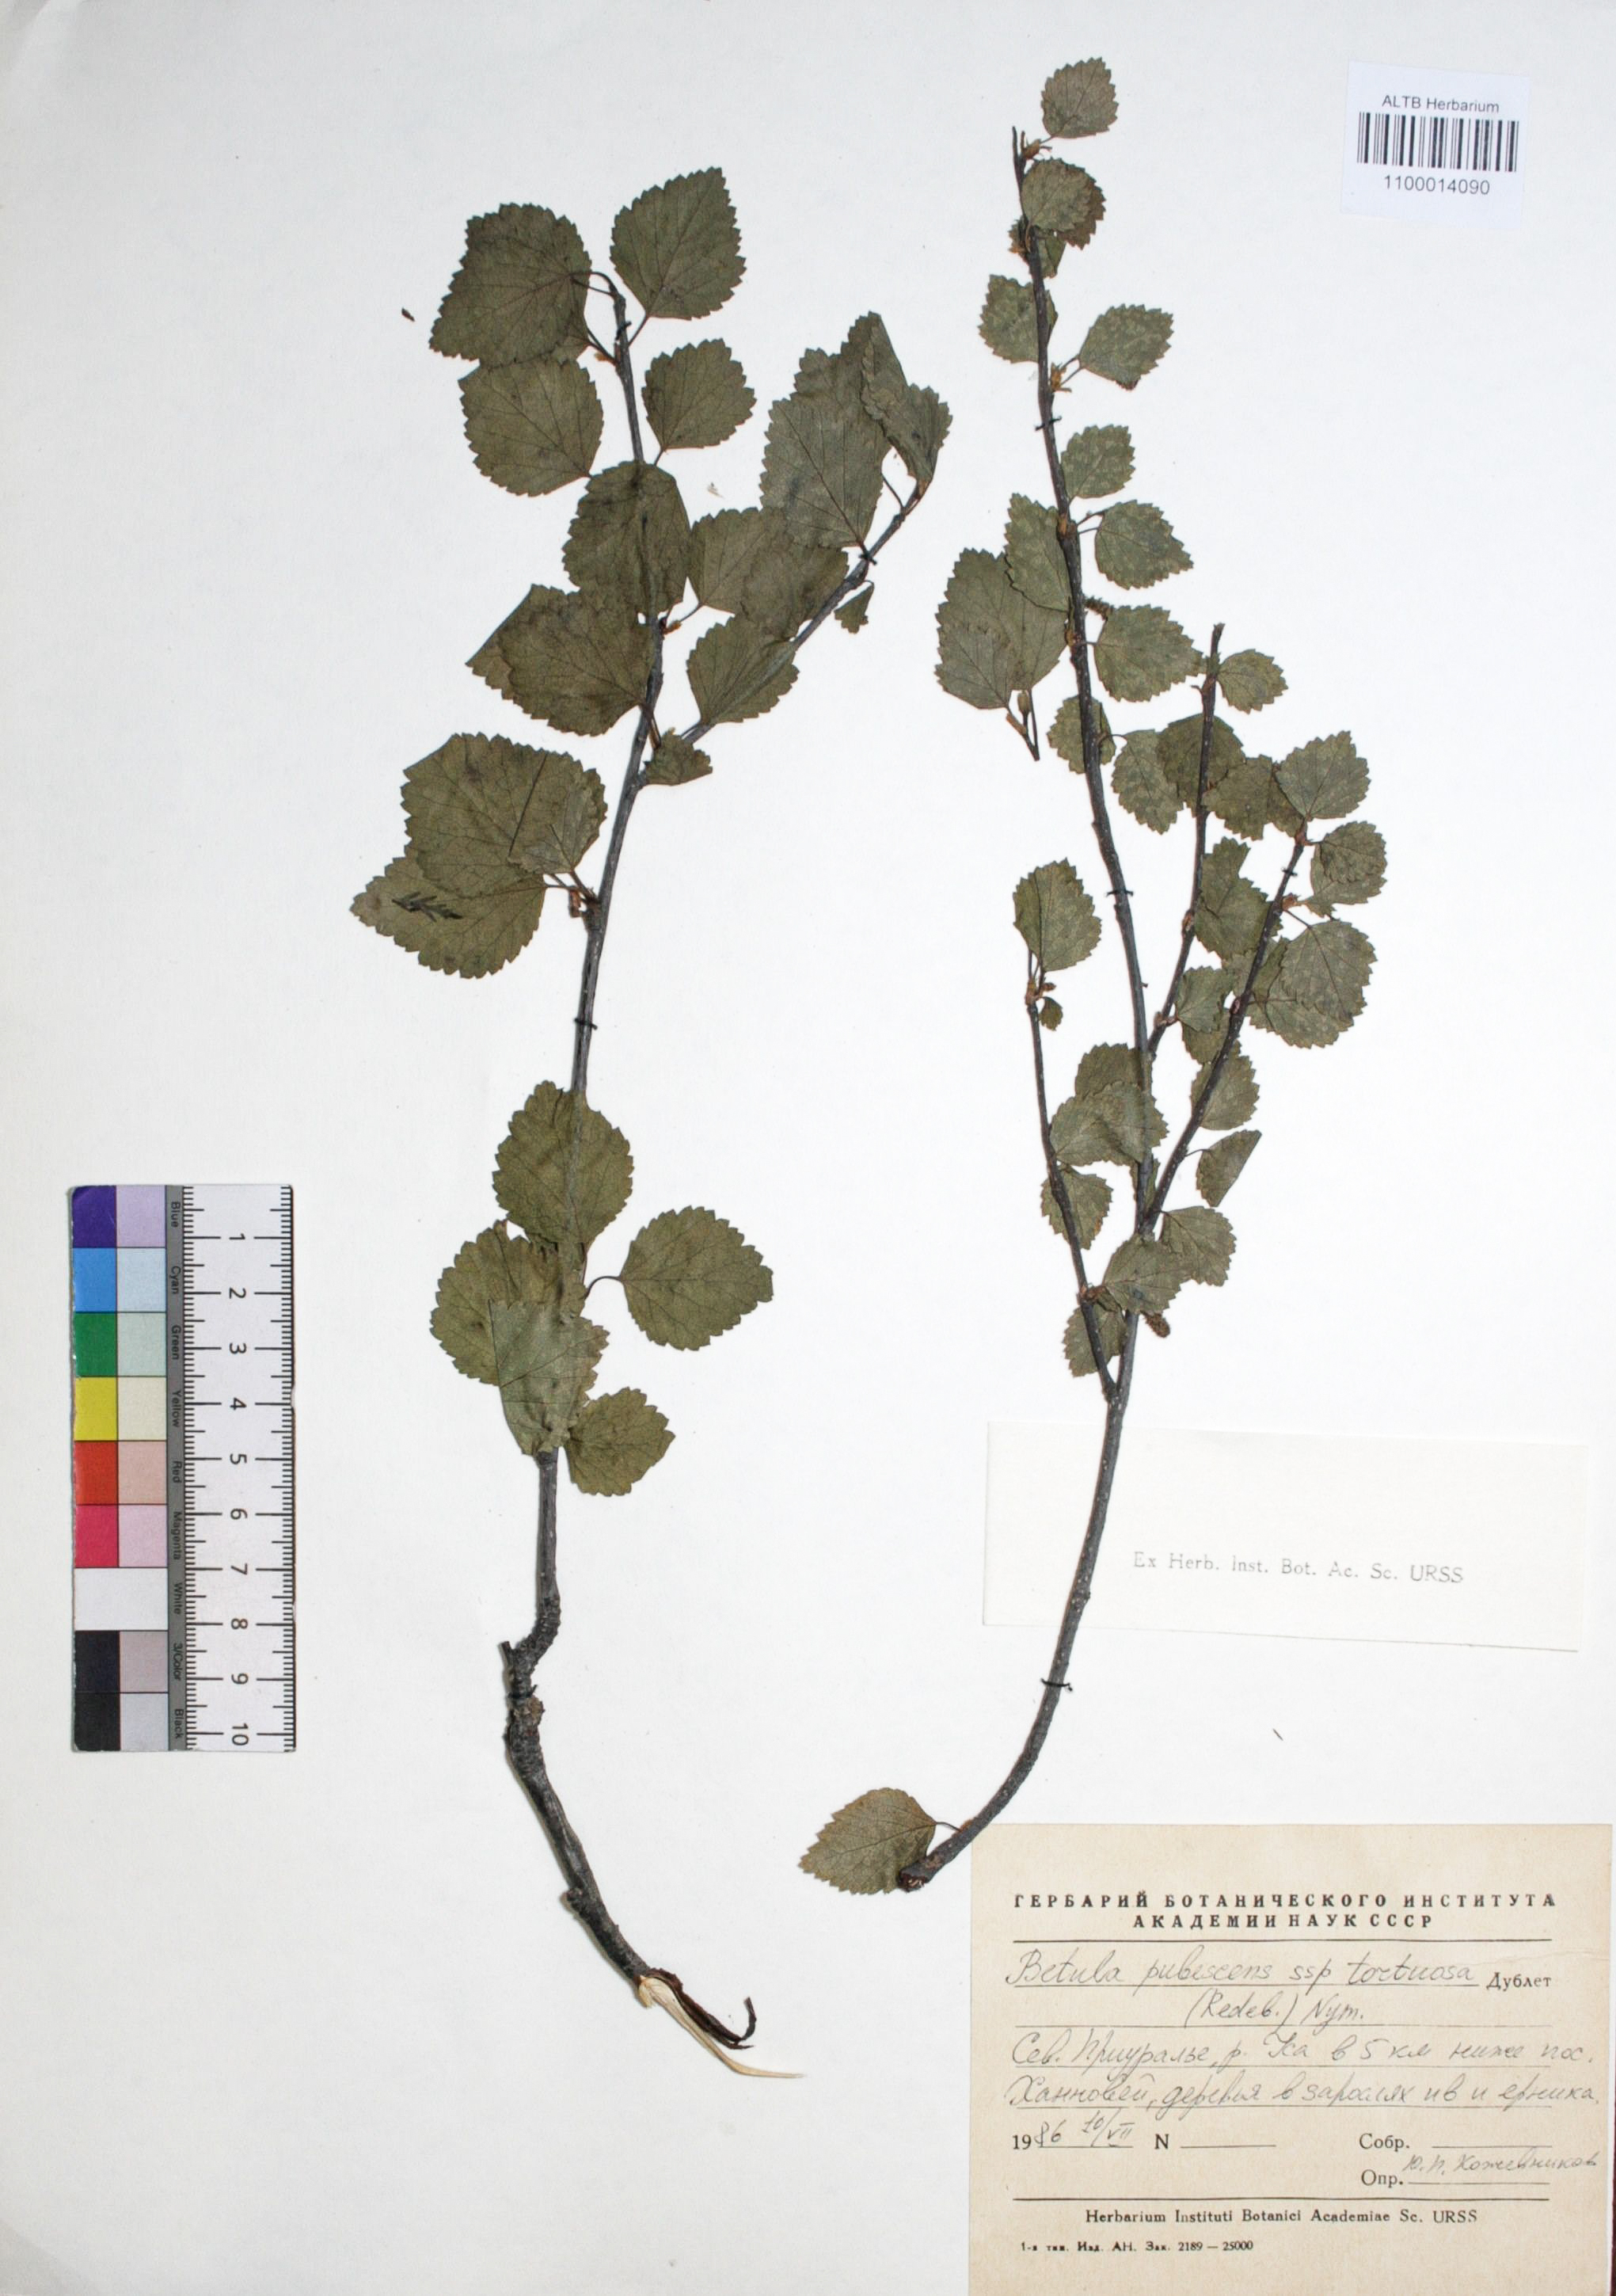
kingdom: Plantae
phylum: Tracheophyta
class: Magnoliopsida
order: Fagales
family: Betulaceae
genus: Betula
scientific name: Betula pubescens
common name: Downy birch
